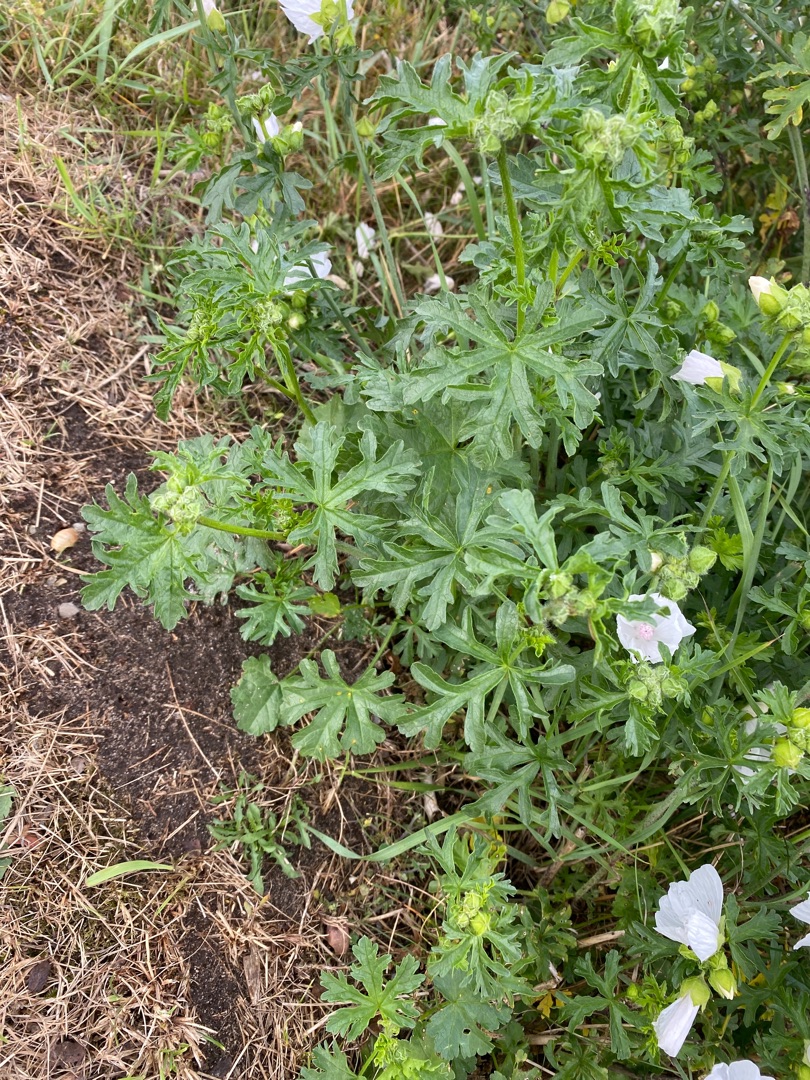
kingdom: Plantae
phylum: Tracheophyta
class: Magnoliopsida
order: Malvales
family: Malvaceae
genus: Malva
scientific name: Malva moschata
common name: Moskus-katost
